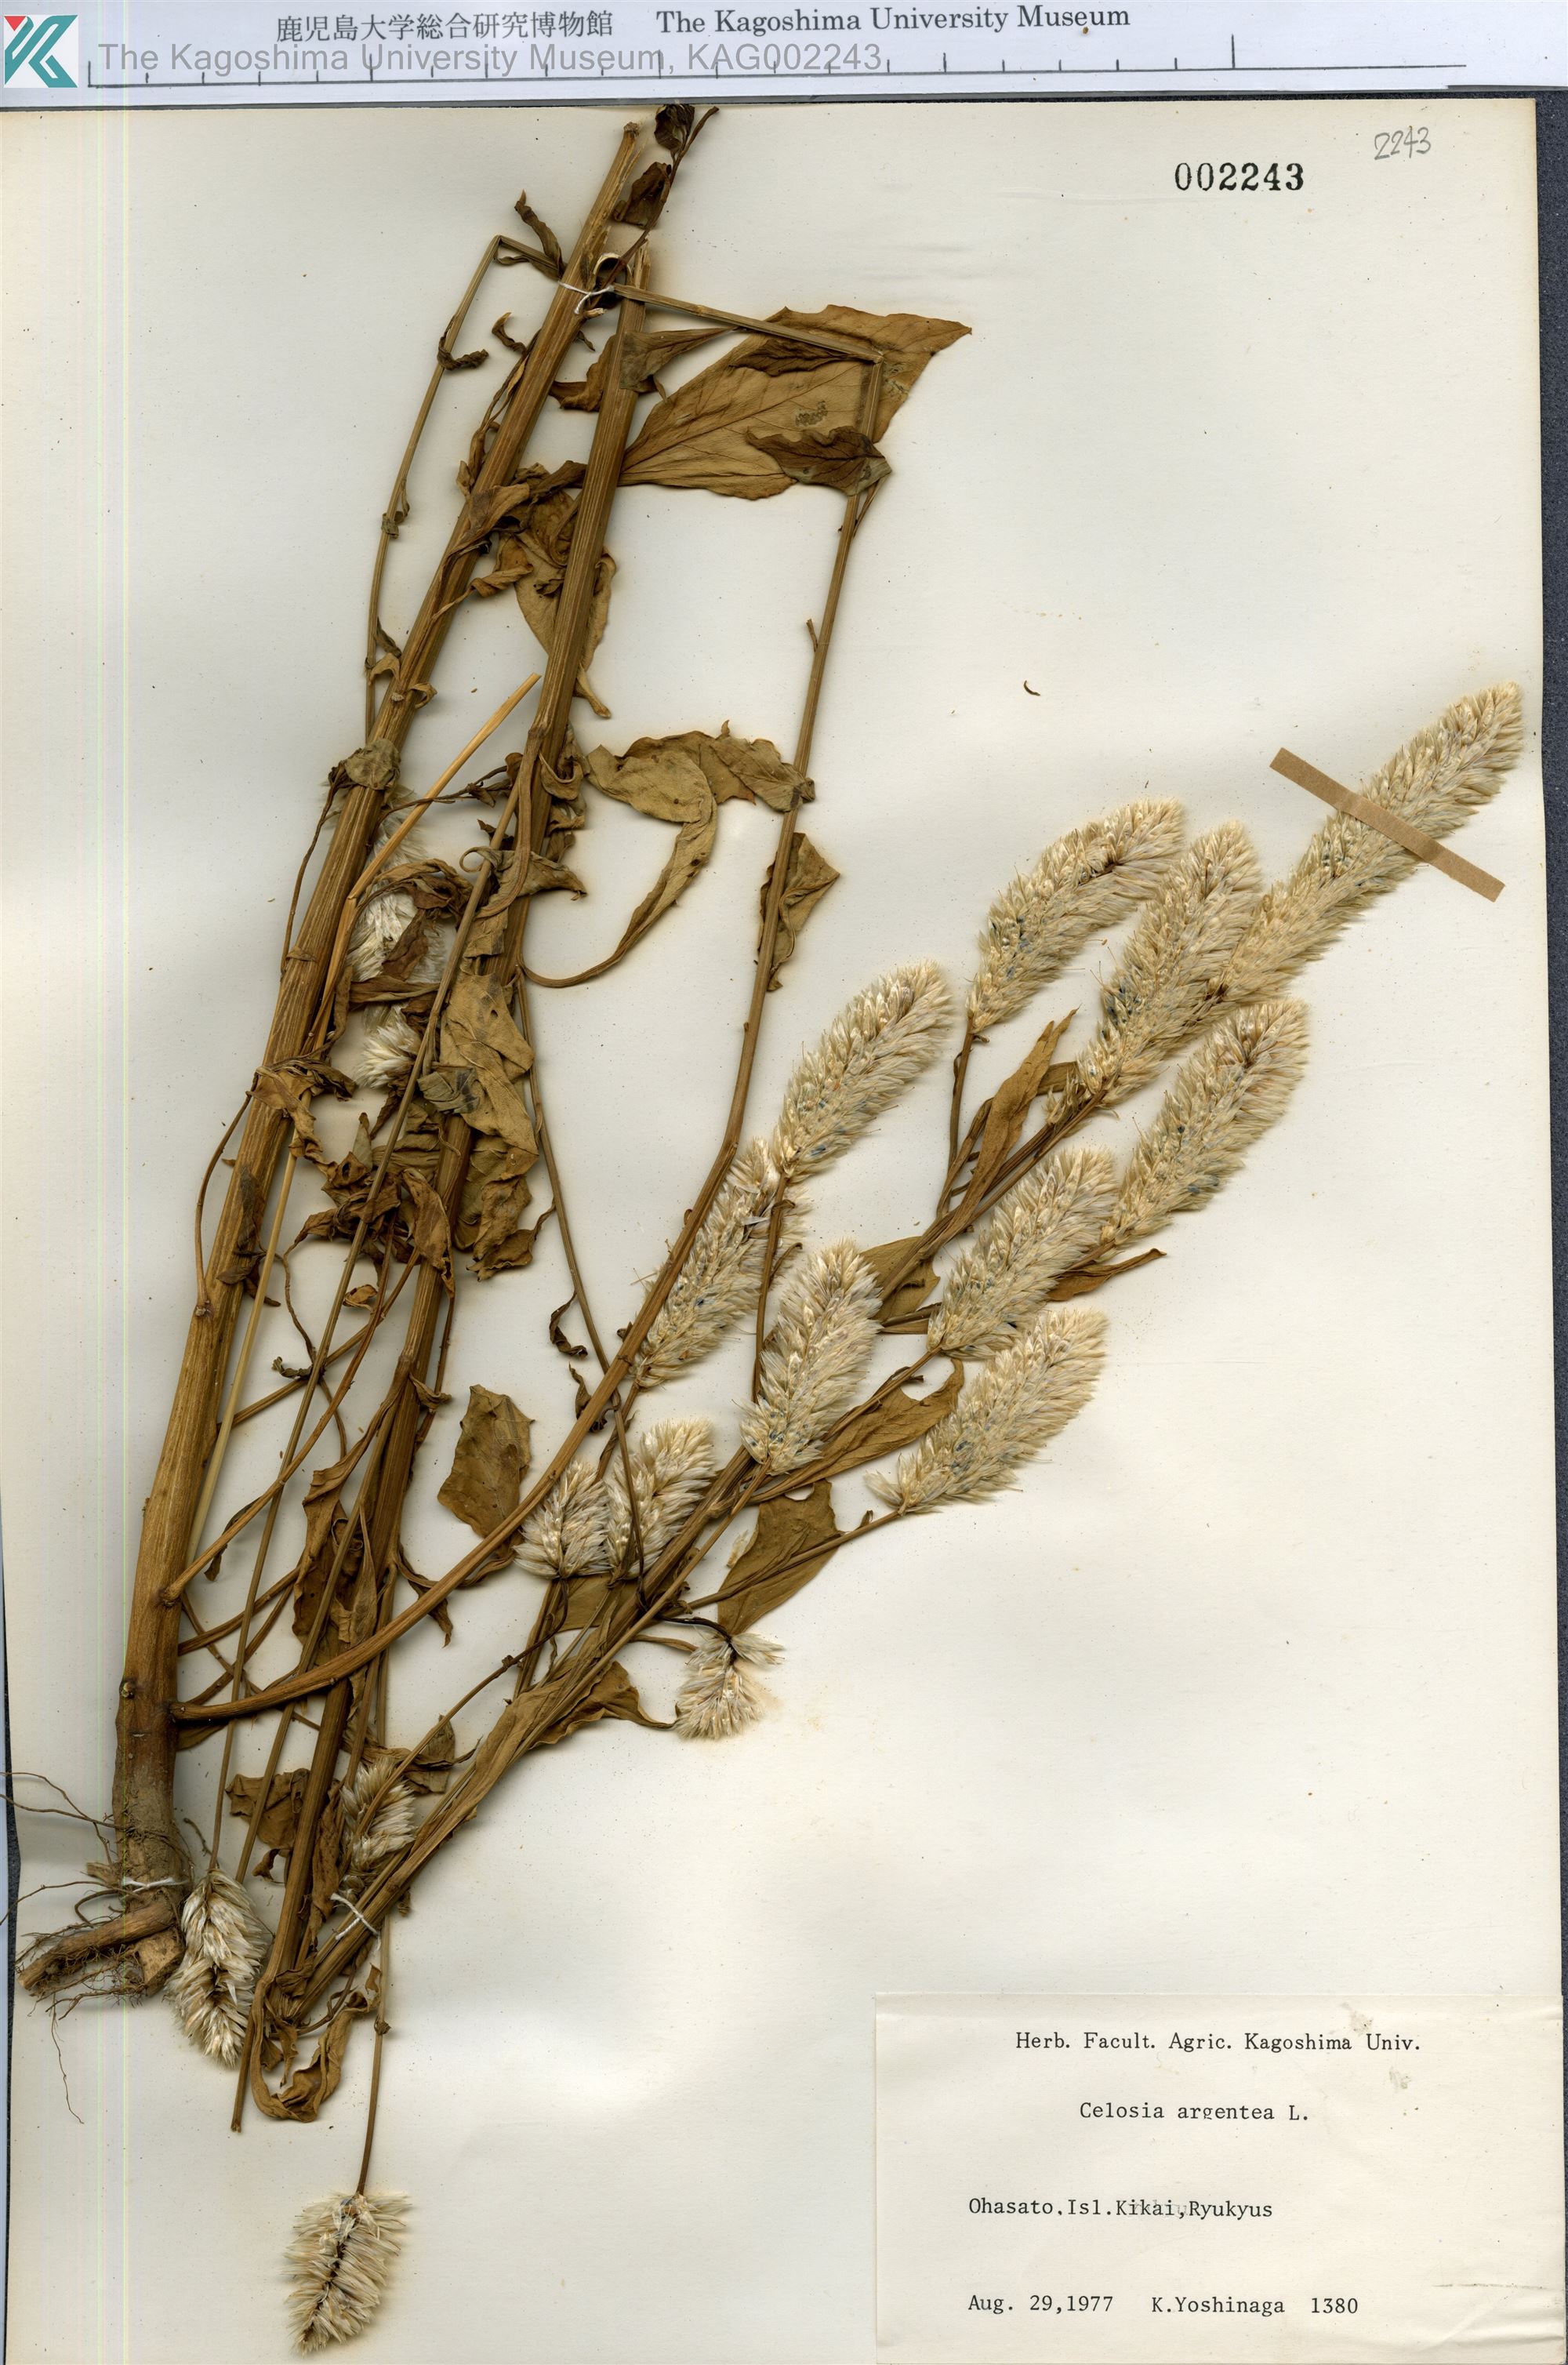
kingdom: Plantae
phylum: Tracheophyta
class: Magnoliopsida
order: Caryophyllales
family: Amaranthaceae
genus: Celosia
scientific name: Celosia argentea
